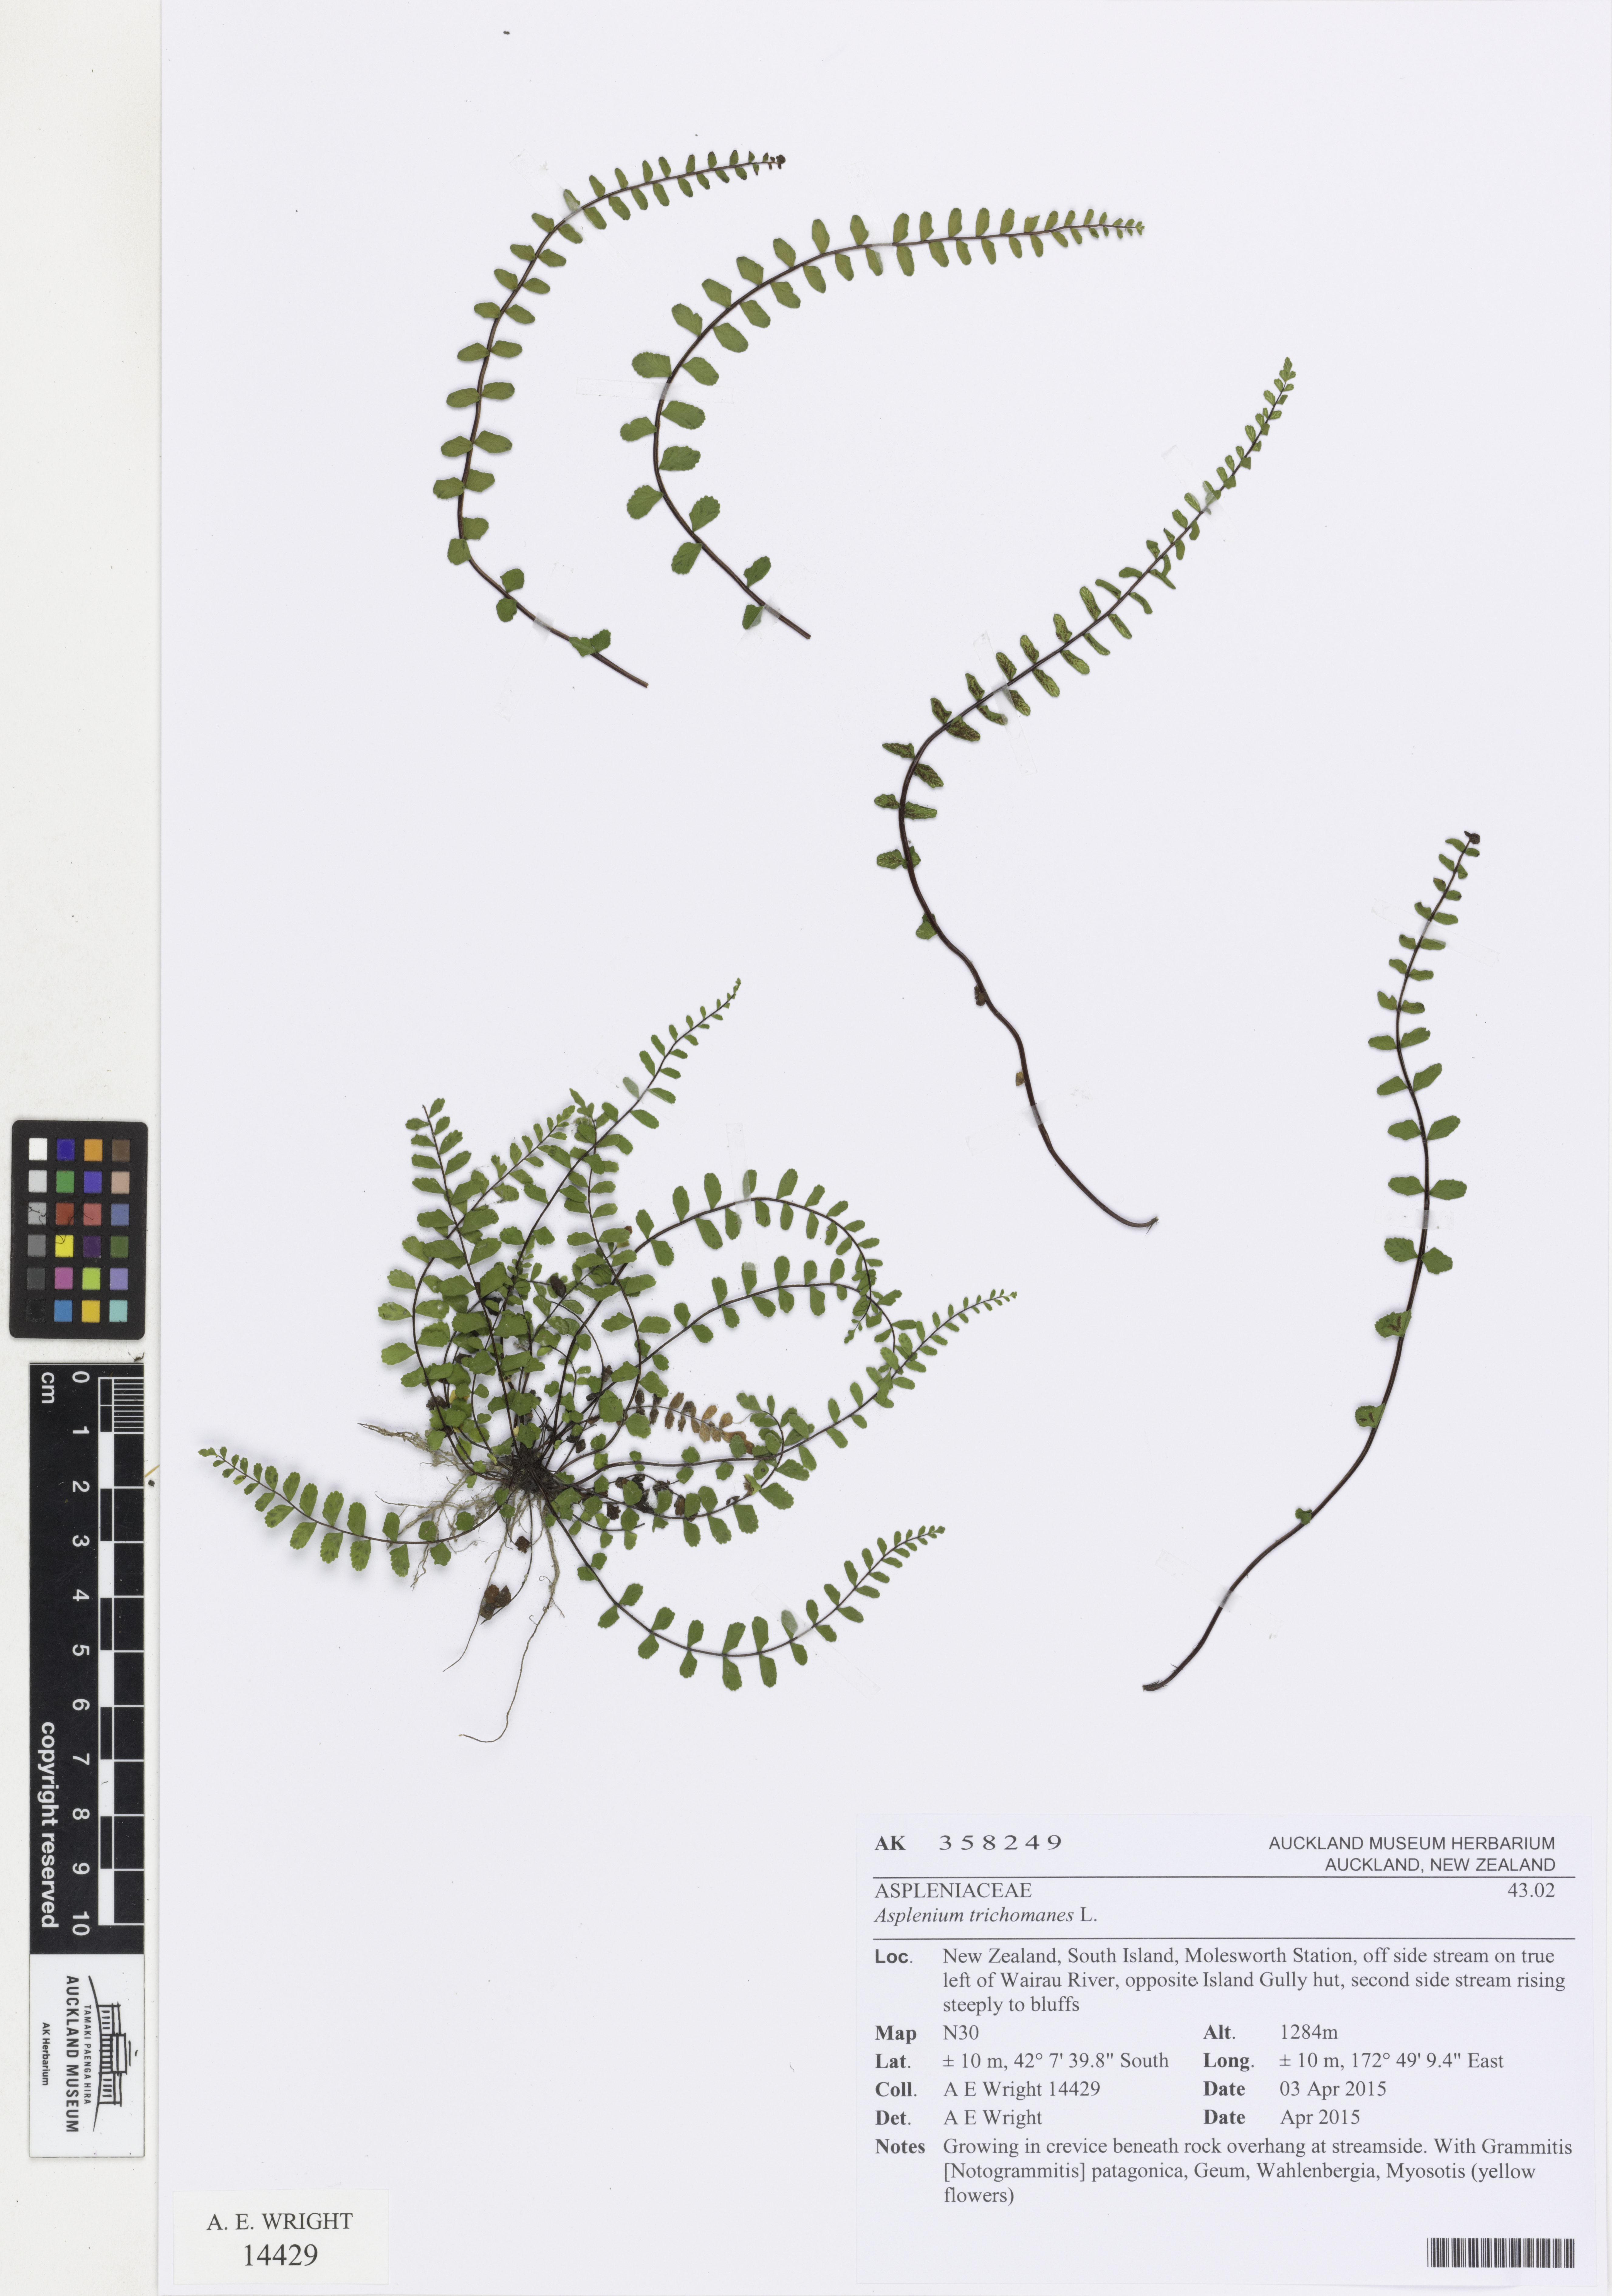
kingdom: Plantae
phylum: Tracheophyta
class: Polypodiopsida
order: Polypodiales
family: Aspleniaceae
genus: Asplenium
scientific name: Asplenium trichomanes
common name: Maidenhair spleenwort
